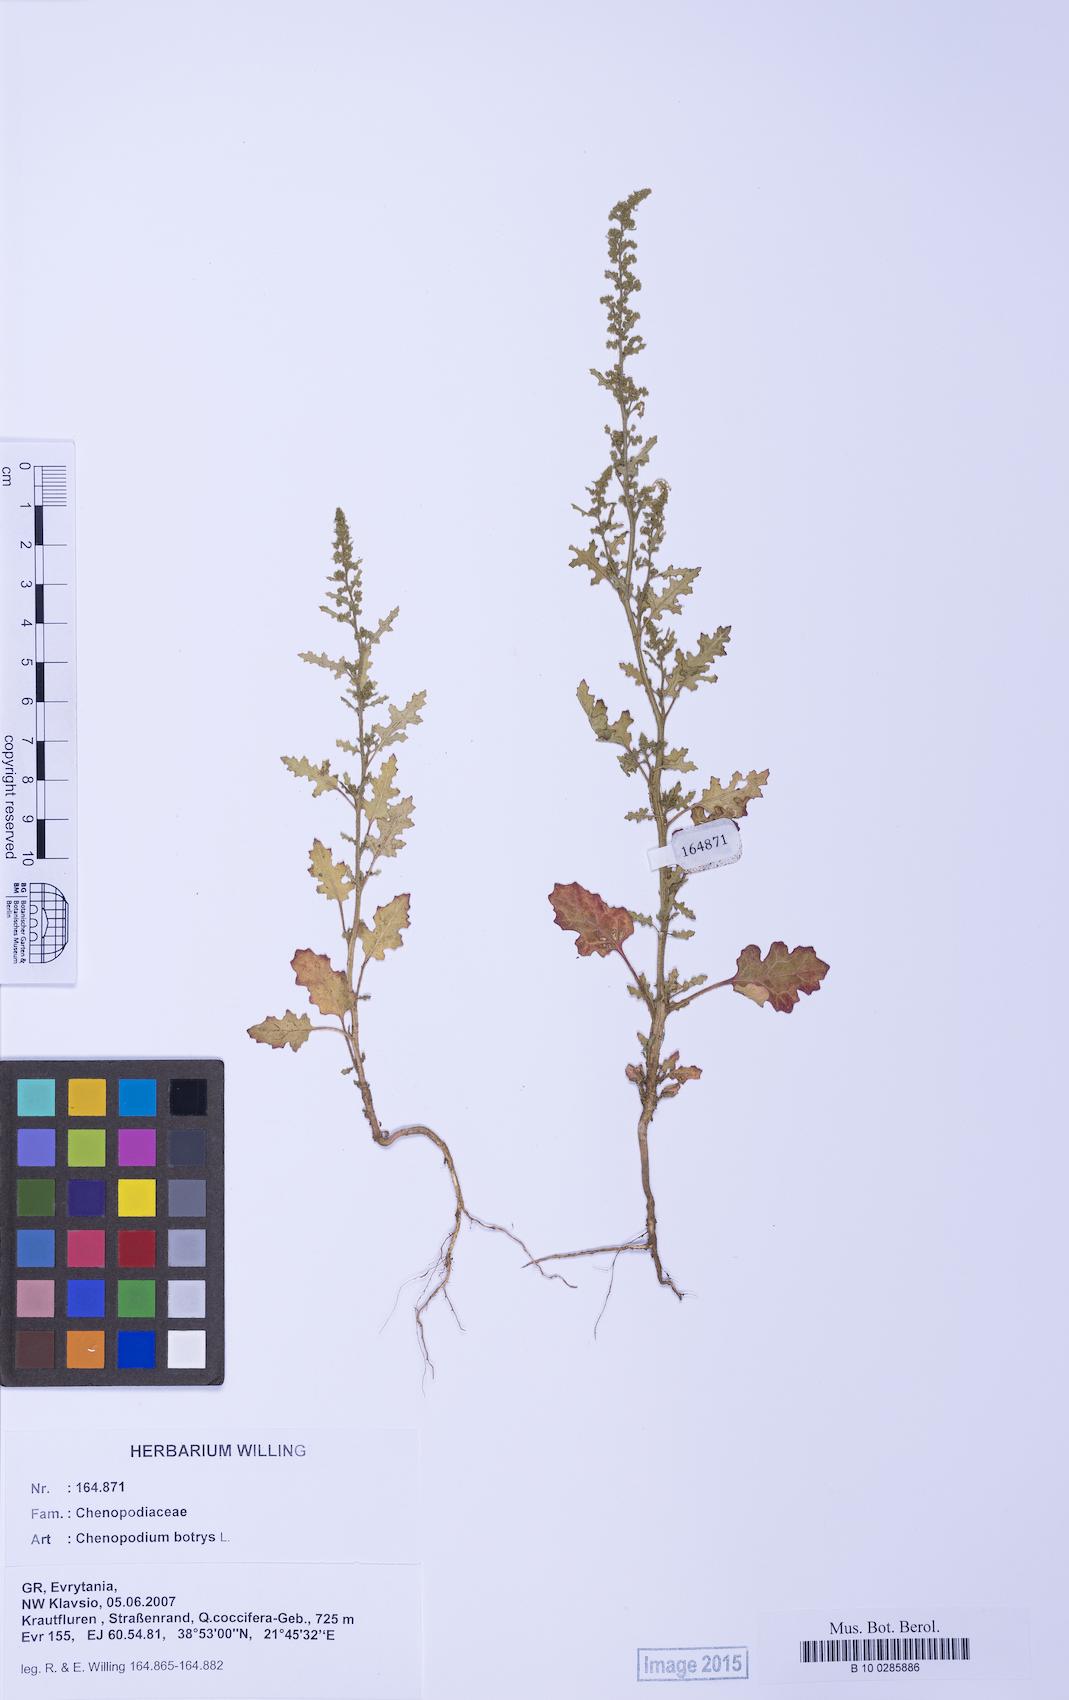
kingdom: Plantae
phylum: Tracheophyta
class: Magnoliopsida
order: Caryophyllales
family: Amaranthaceae
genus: Dysphania
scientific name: Dysphania botrys
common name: Feather-geranium
